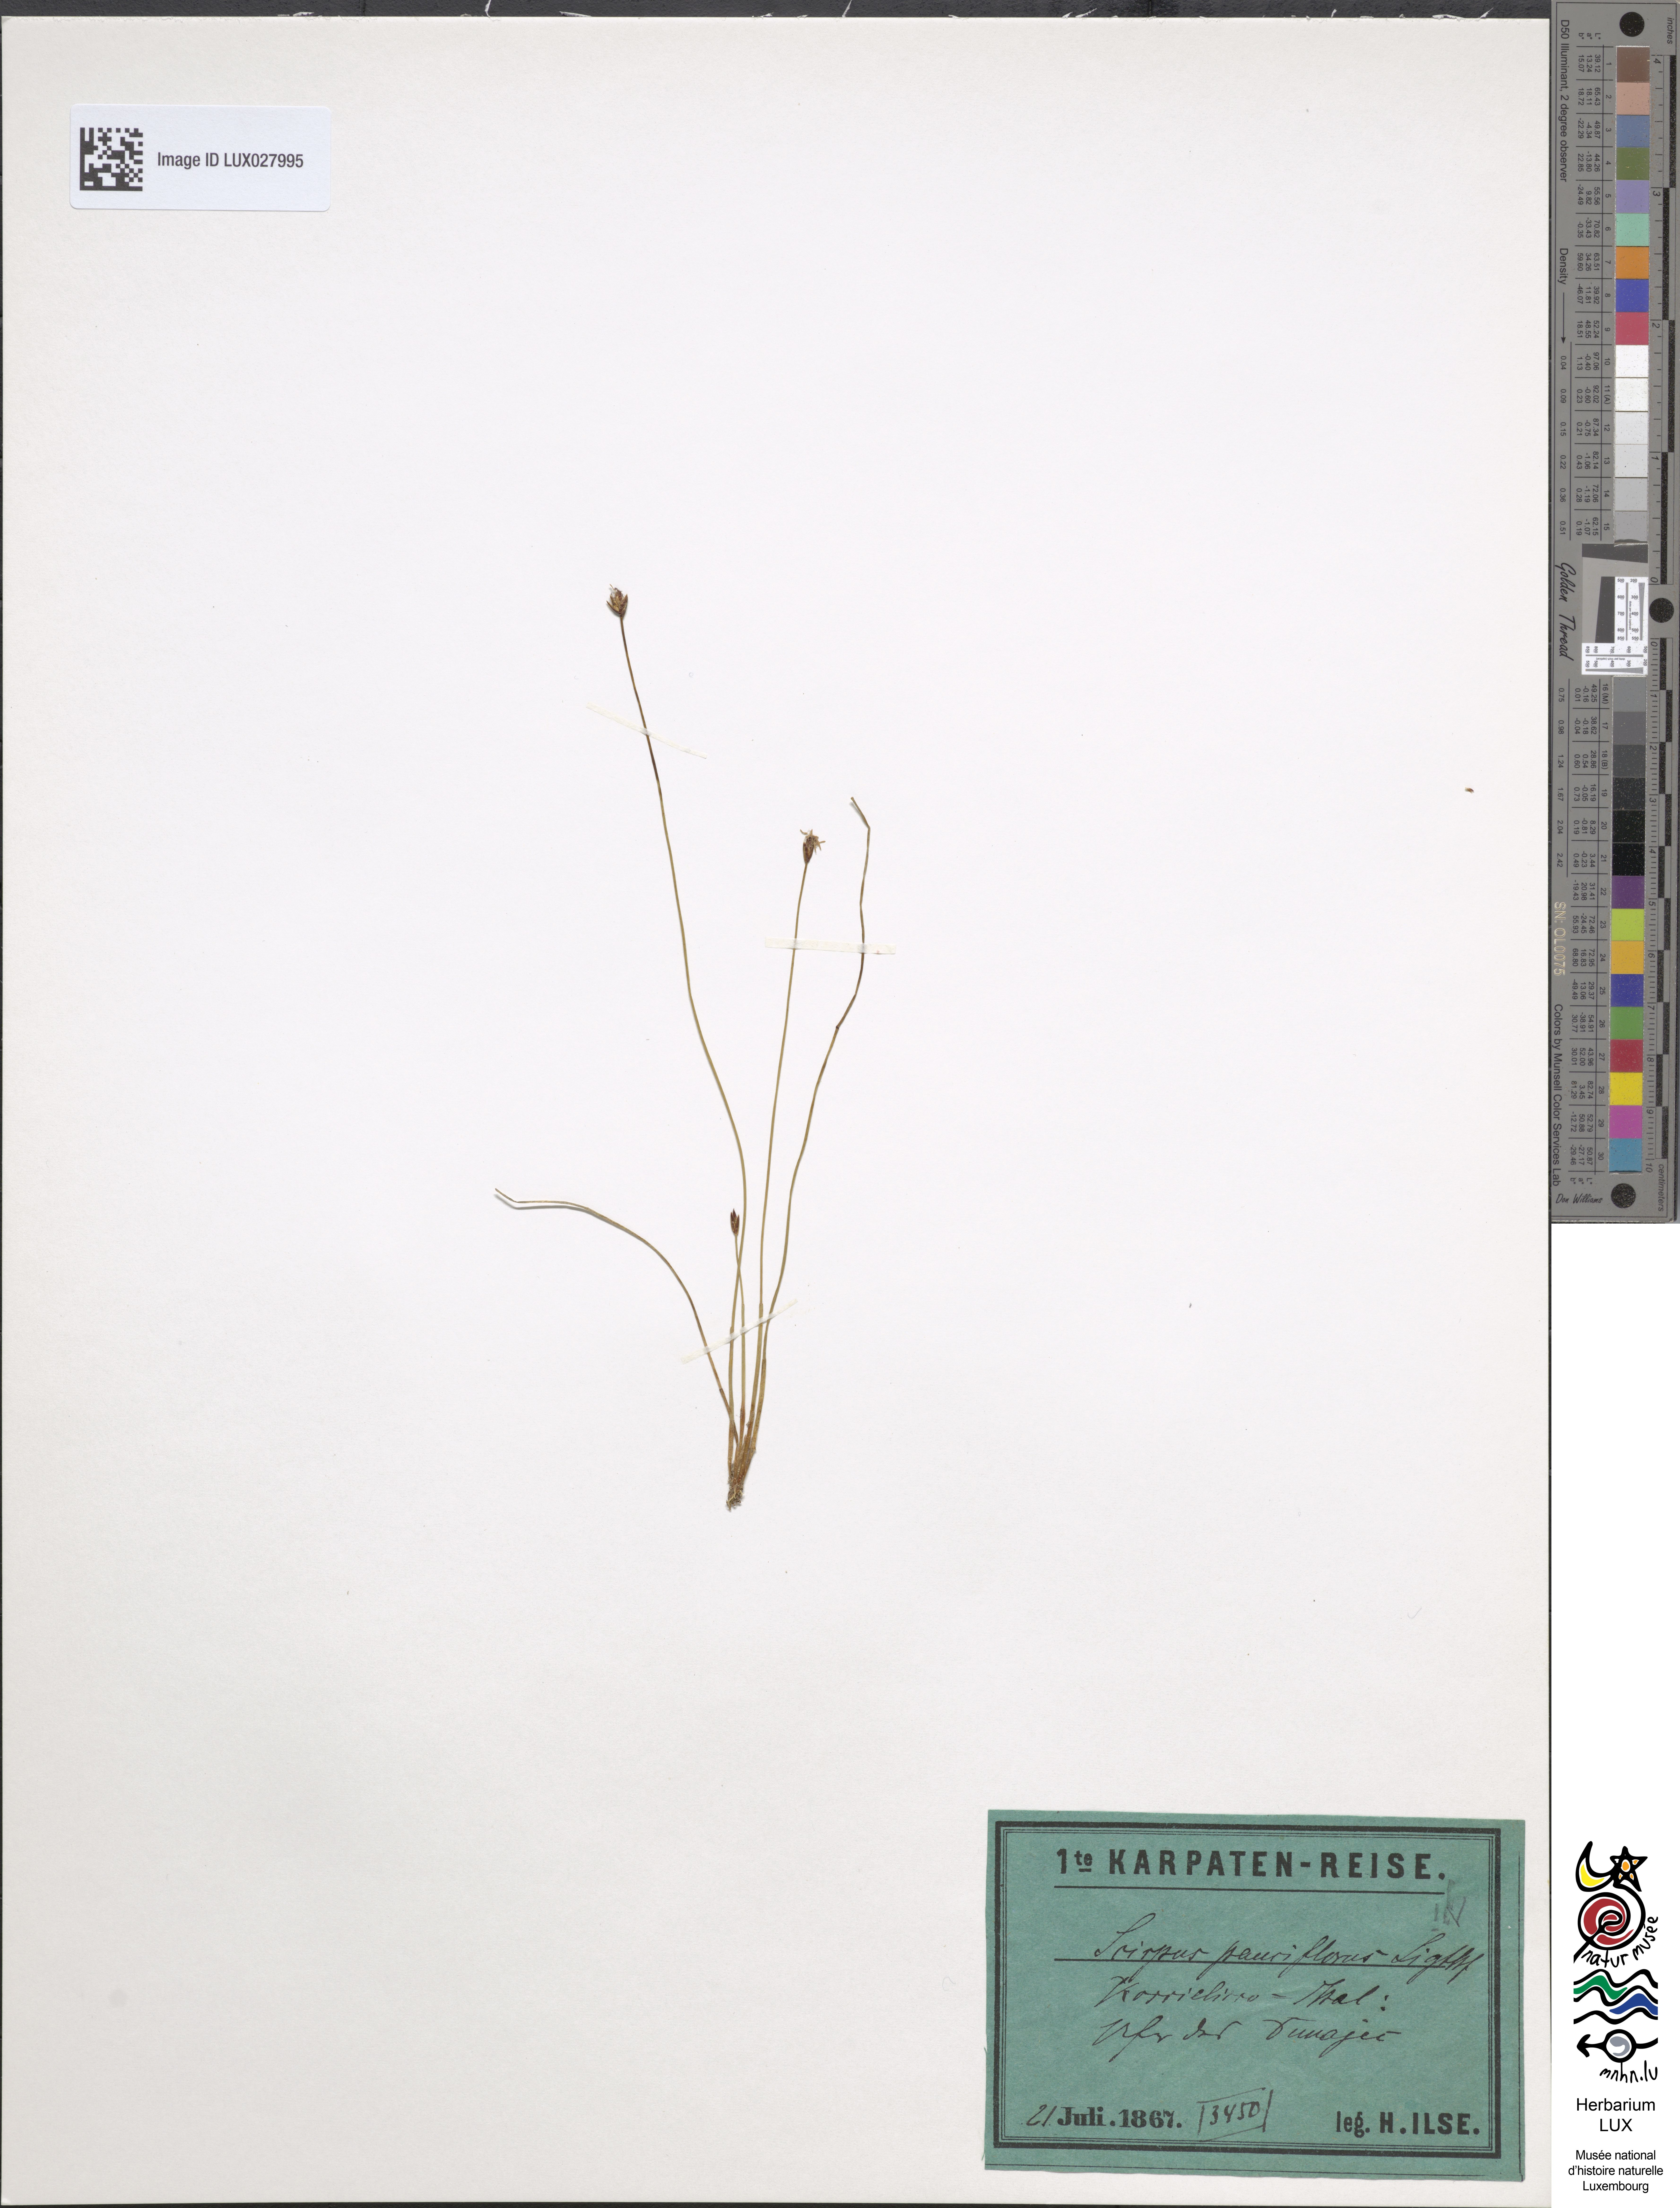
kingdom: Plantae
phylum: Tracheophyta
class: Liliopsida
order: Poales
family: Cyperaceae
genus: Eleocharis
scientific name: Eleocharis quinqueflora
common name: Few-flowered spike-rush
